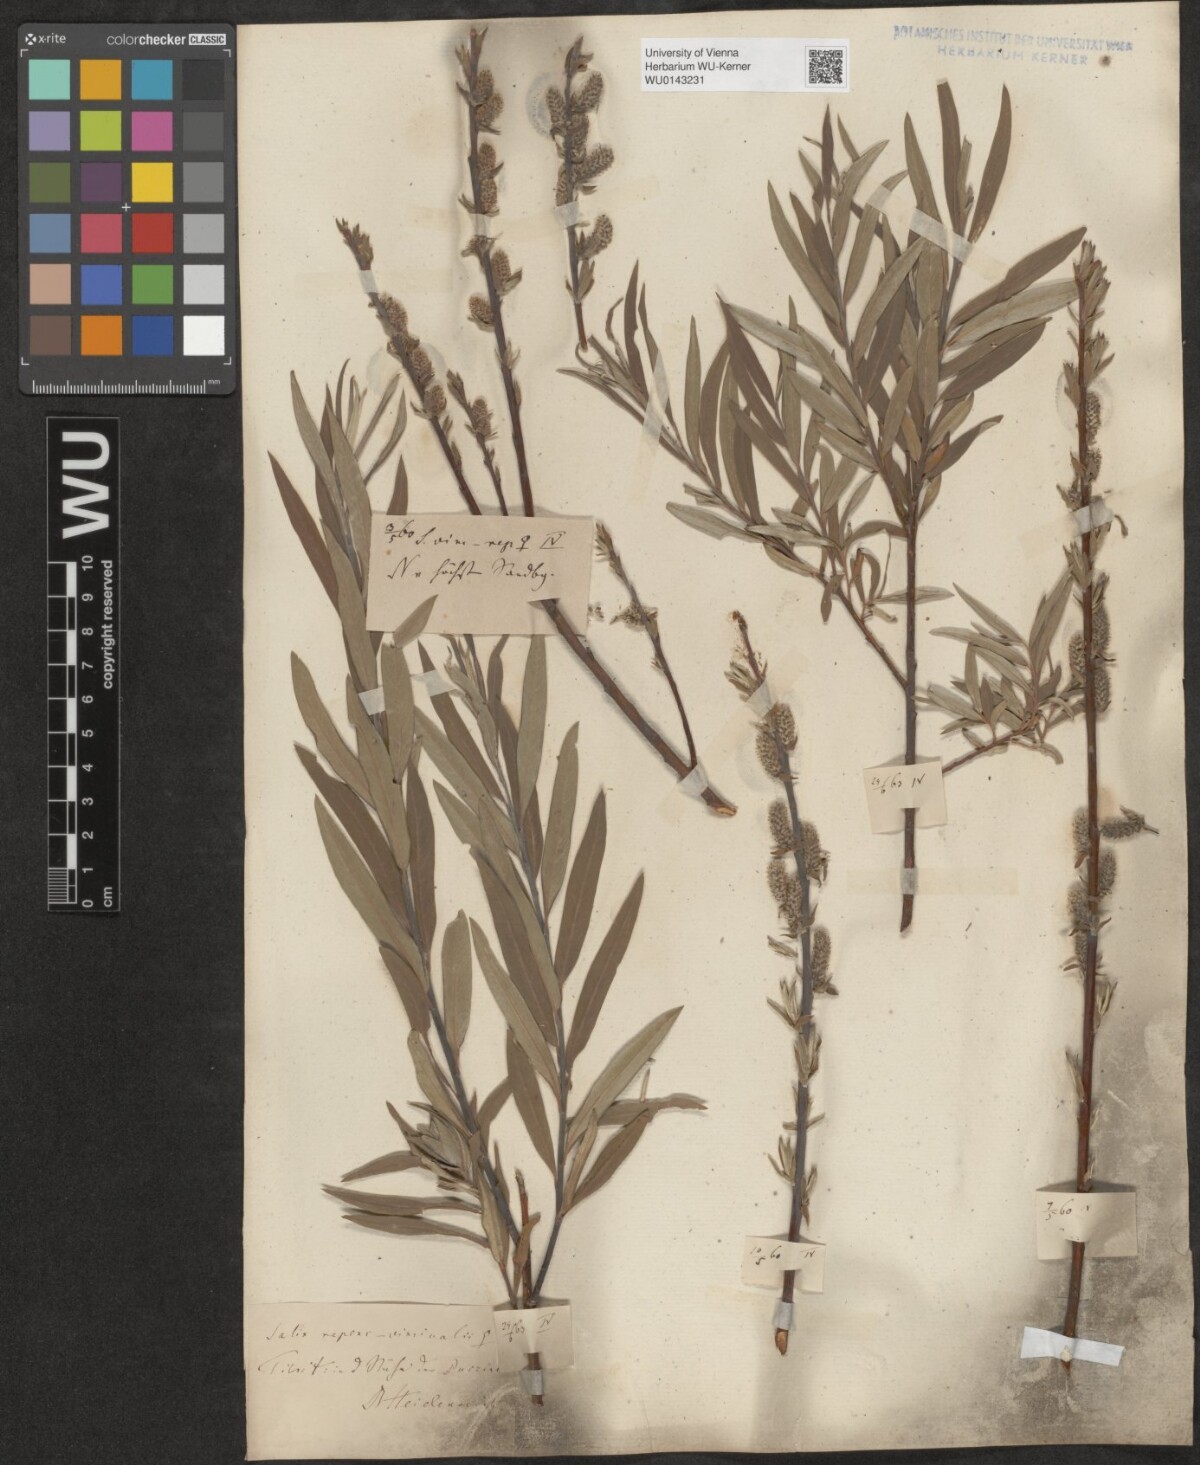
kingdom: Plantae
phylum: Tracheophyta
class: Magnoliopsida
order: Malpighiales
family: Salicaceae
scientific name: Salicaceae
